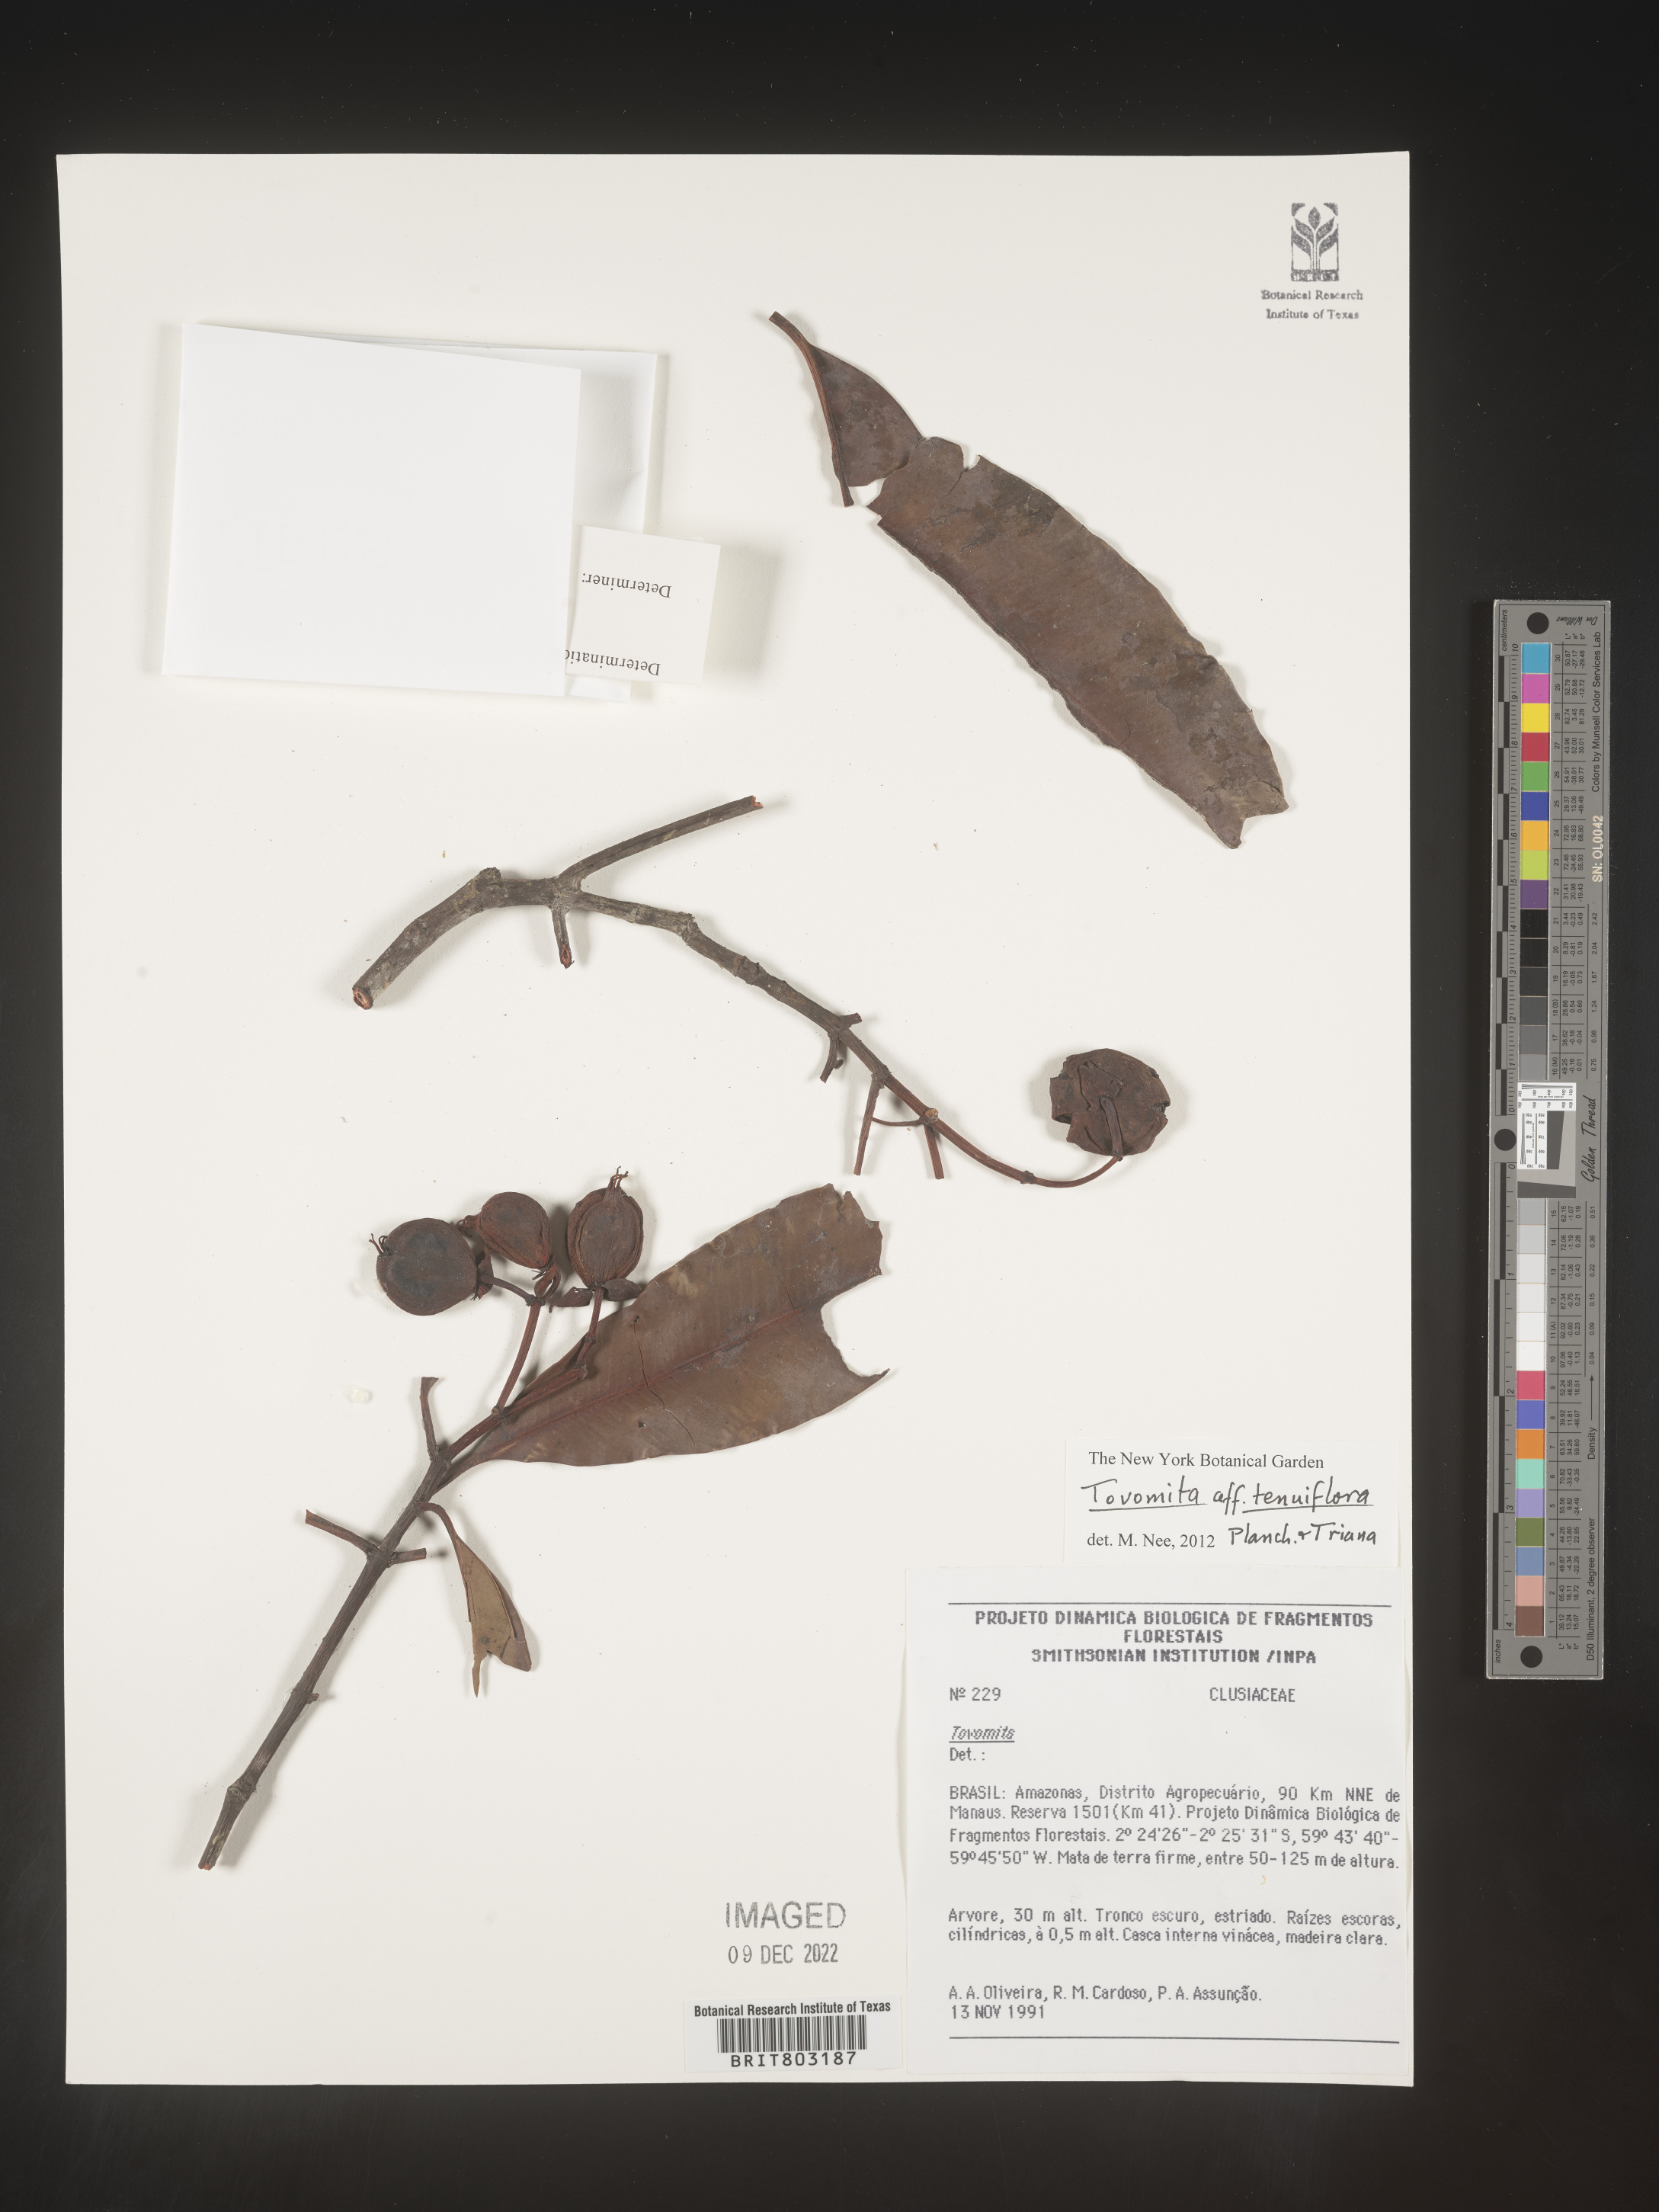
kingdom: Plantae
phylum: Tracheophyta
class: Magnoliopsida
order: Malpighiales
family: Clusiaceae
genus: Tovomita
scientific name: Tovomita
